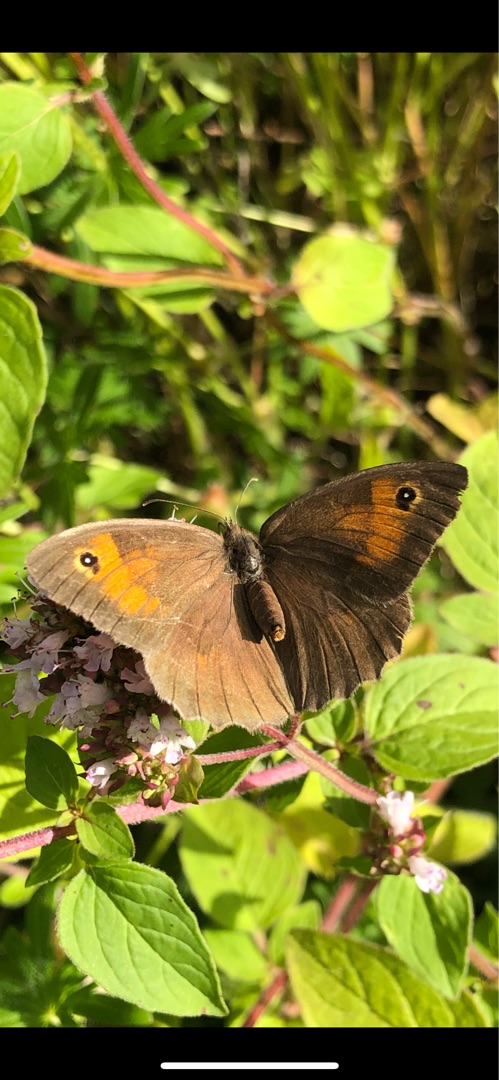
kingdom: Animalia
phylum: Arthropoda
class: Insecta
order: Lepidoptera
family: Nymphalidae
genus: Maniola
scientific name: Maniola jurtina
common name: Græsrandøje
